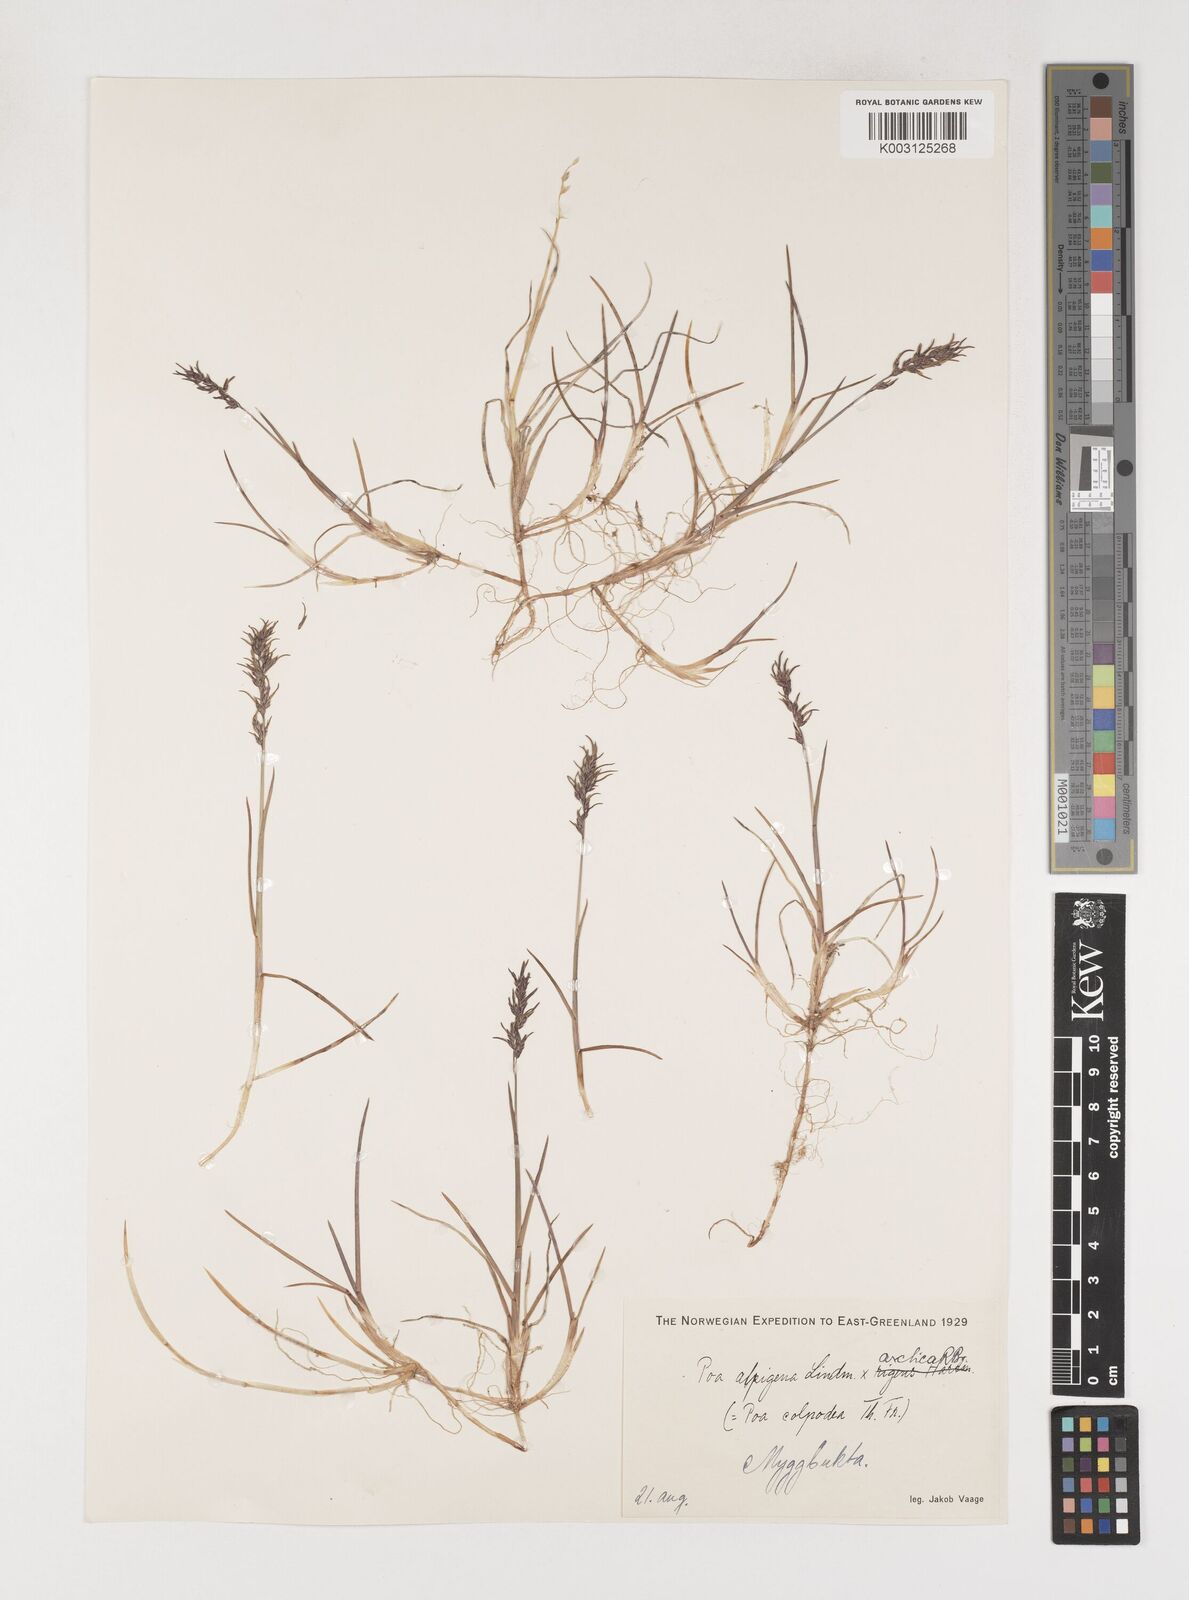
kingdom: Plantae
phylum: Tracheophyta
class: Liliopsida
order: Poales
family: Poaceae
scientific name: Poaceae
